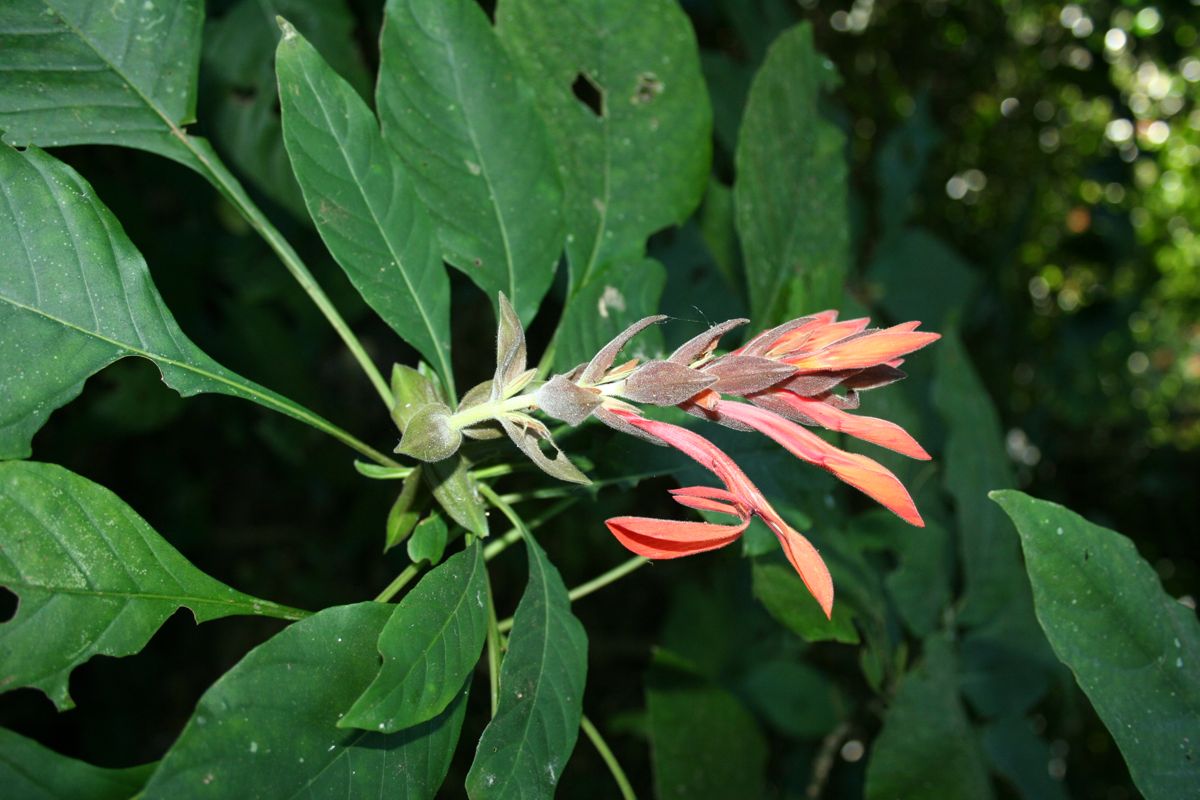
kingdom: Plantae
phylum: Tracheophyta
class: Magnoliopsida
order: Lamiales
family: Acanthaceae
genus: Aphelandra
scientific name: Aphelandra gigantiflora
